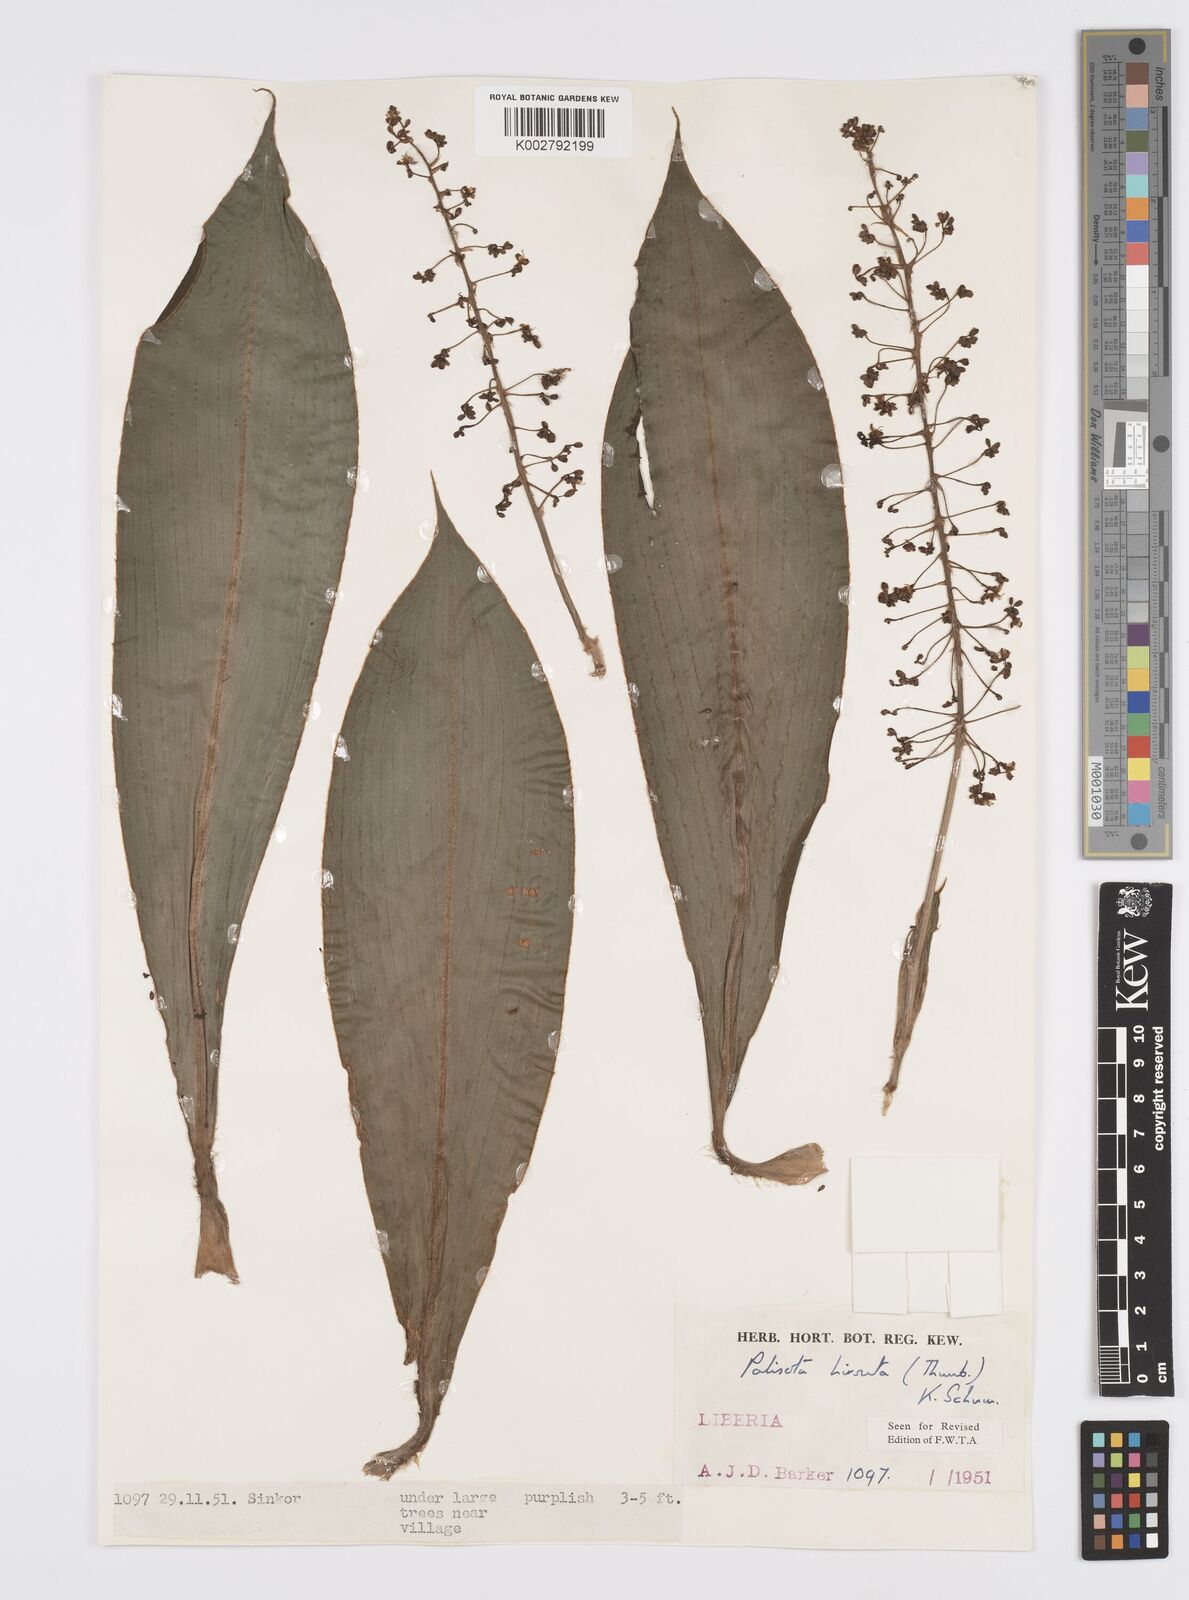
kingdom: Plantae
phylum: Tracheophyta
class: Liliopsida
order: Commelinales
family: Commelinaceae
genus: Palisota
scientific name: Palisota hirsuta
